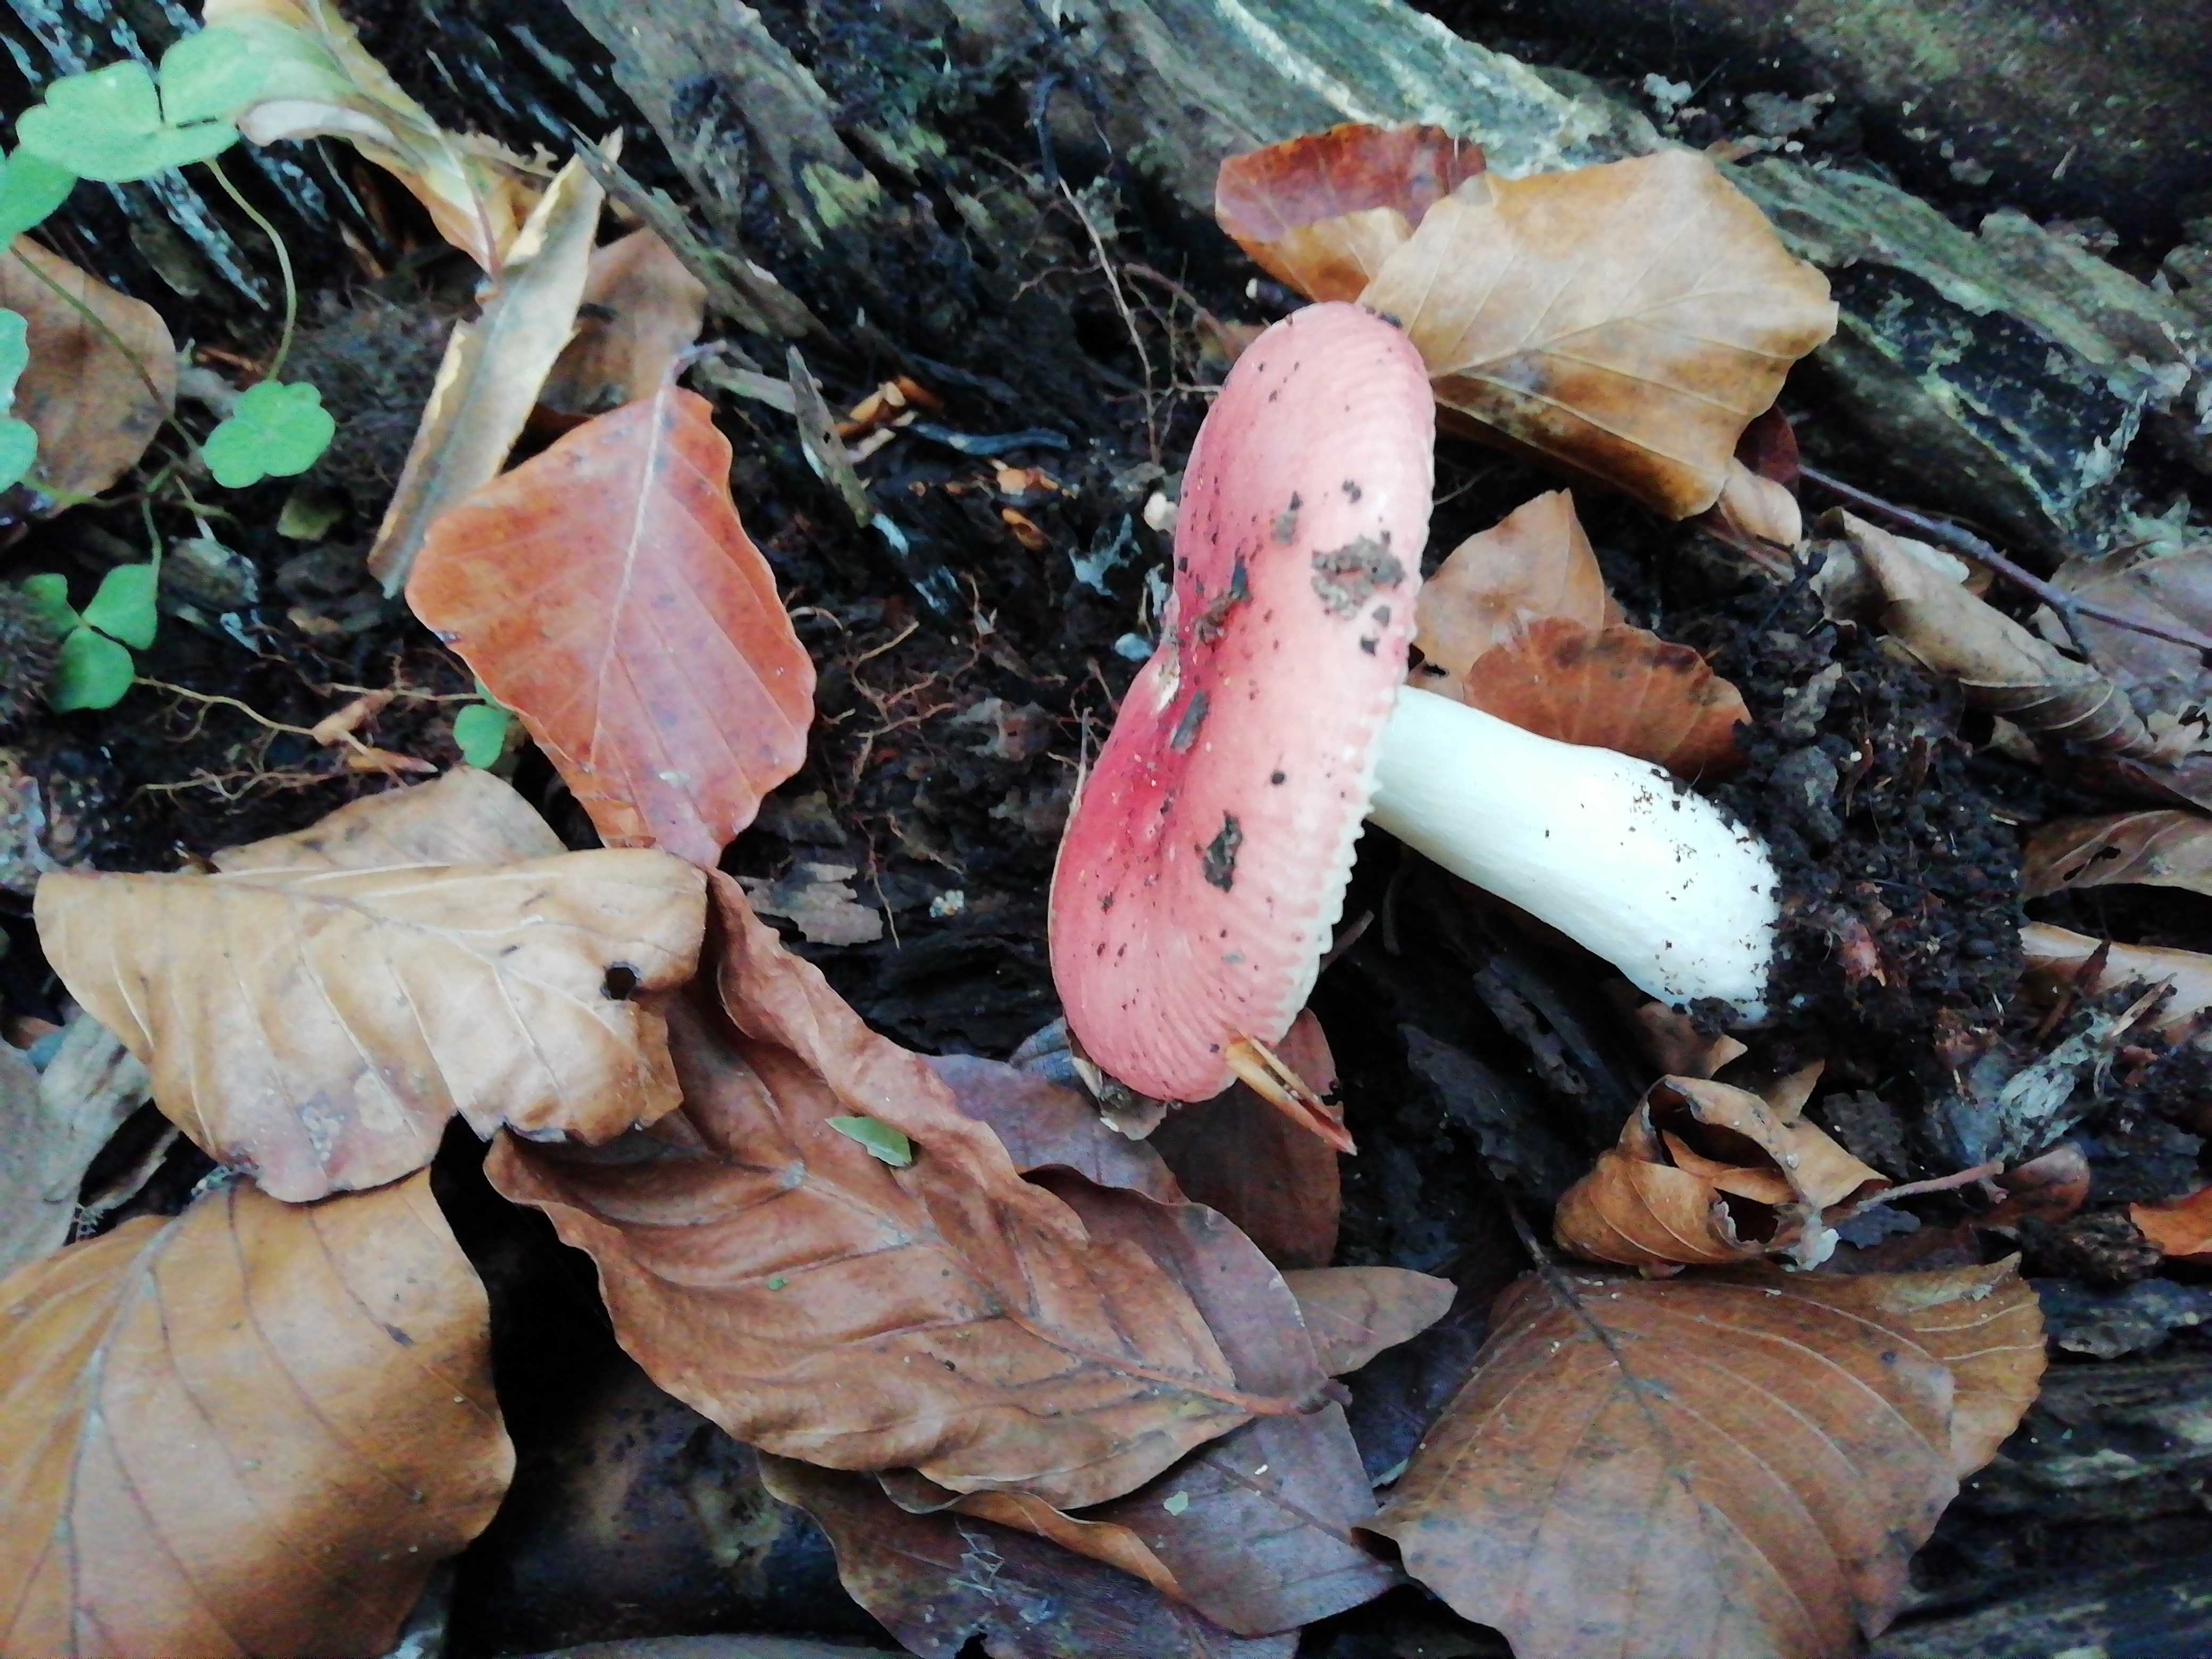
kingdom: Fungi
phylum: Basidiomycota
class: Agaricomycetes
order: Russulales
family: Russulaceae
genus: Russula
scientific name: Russula
